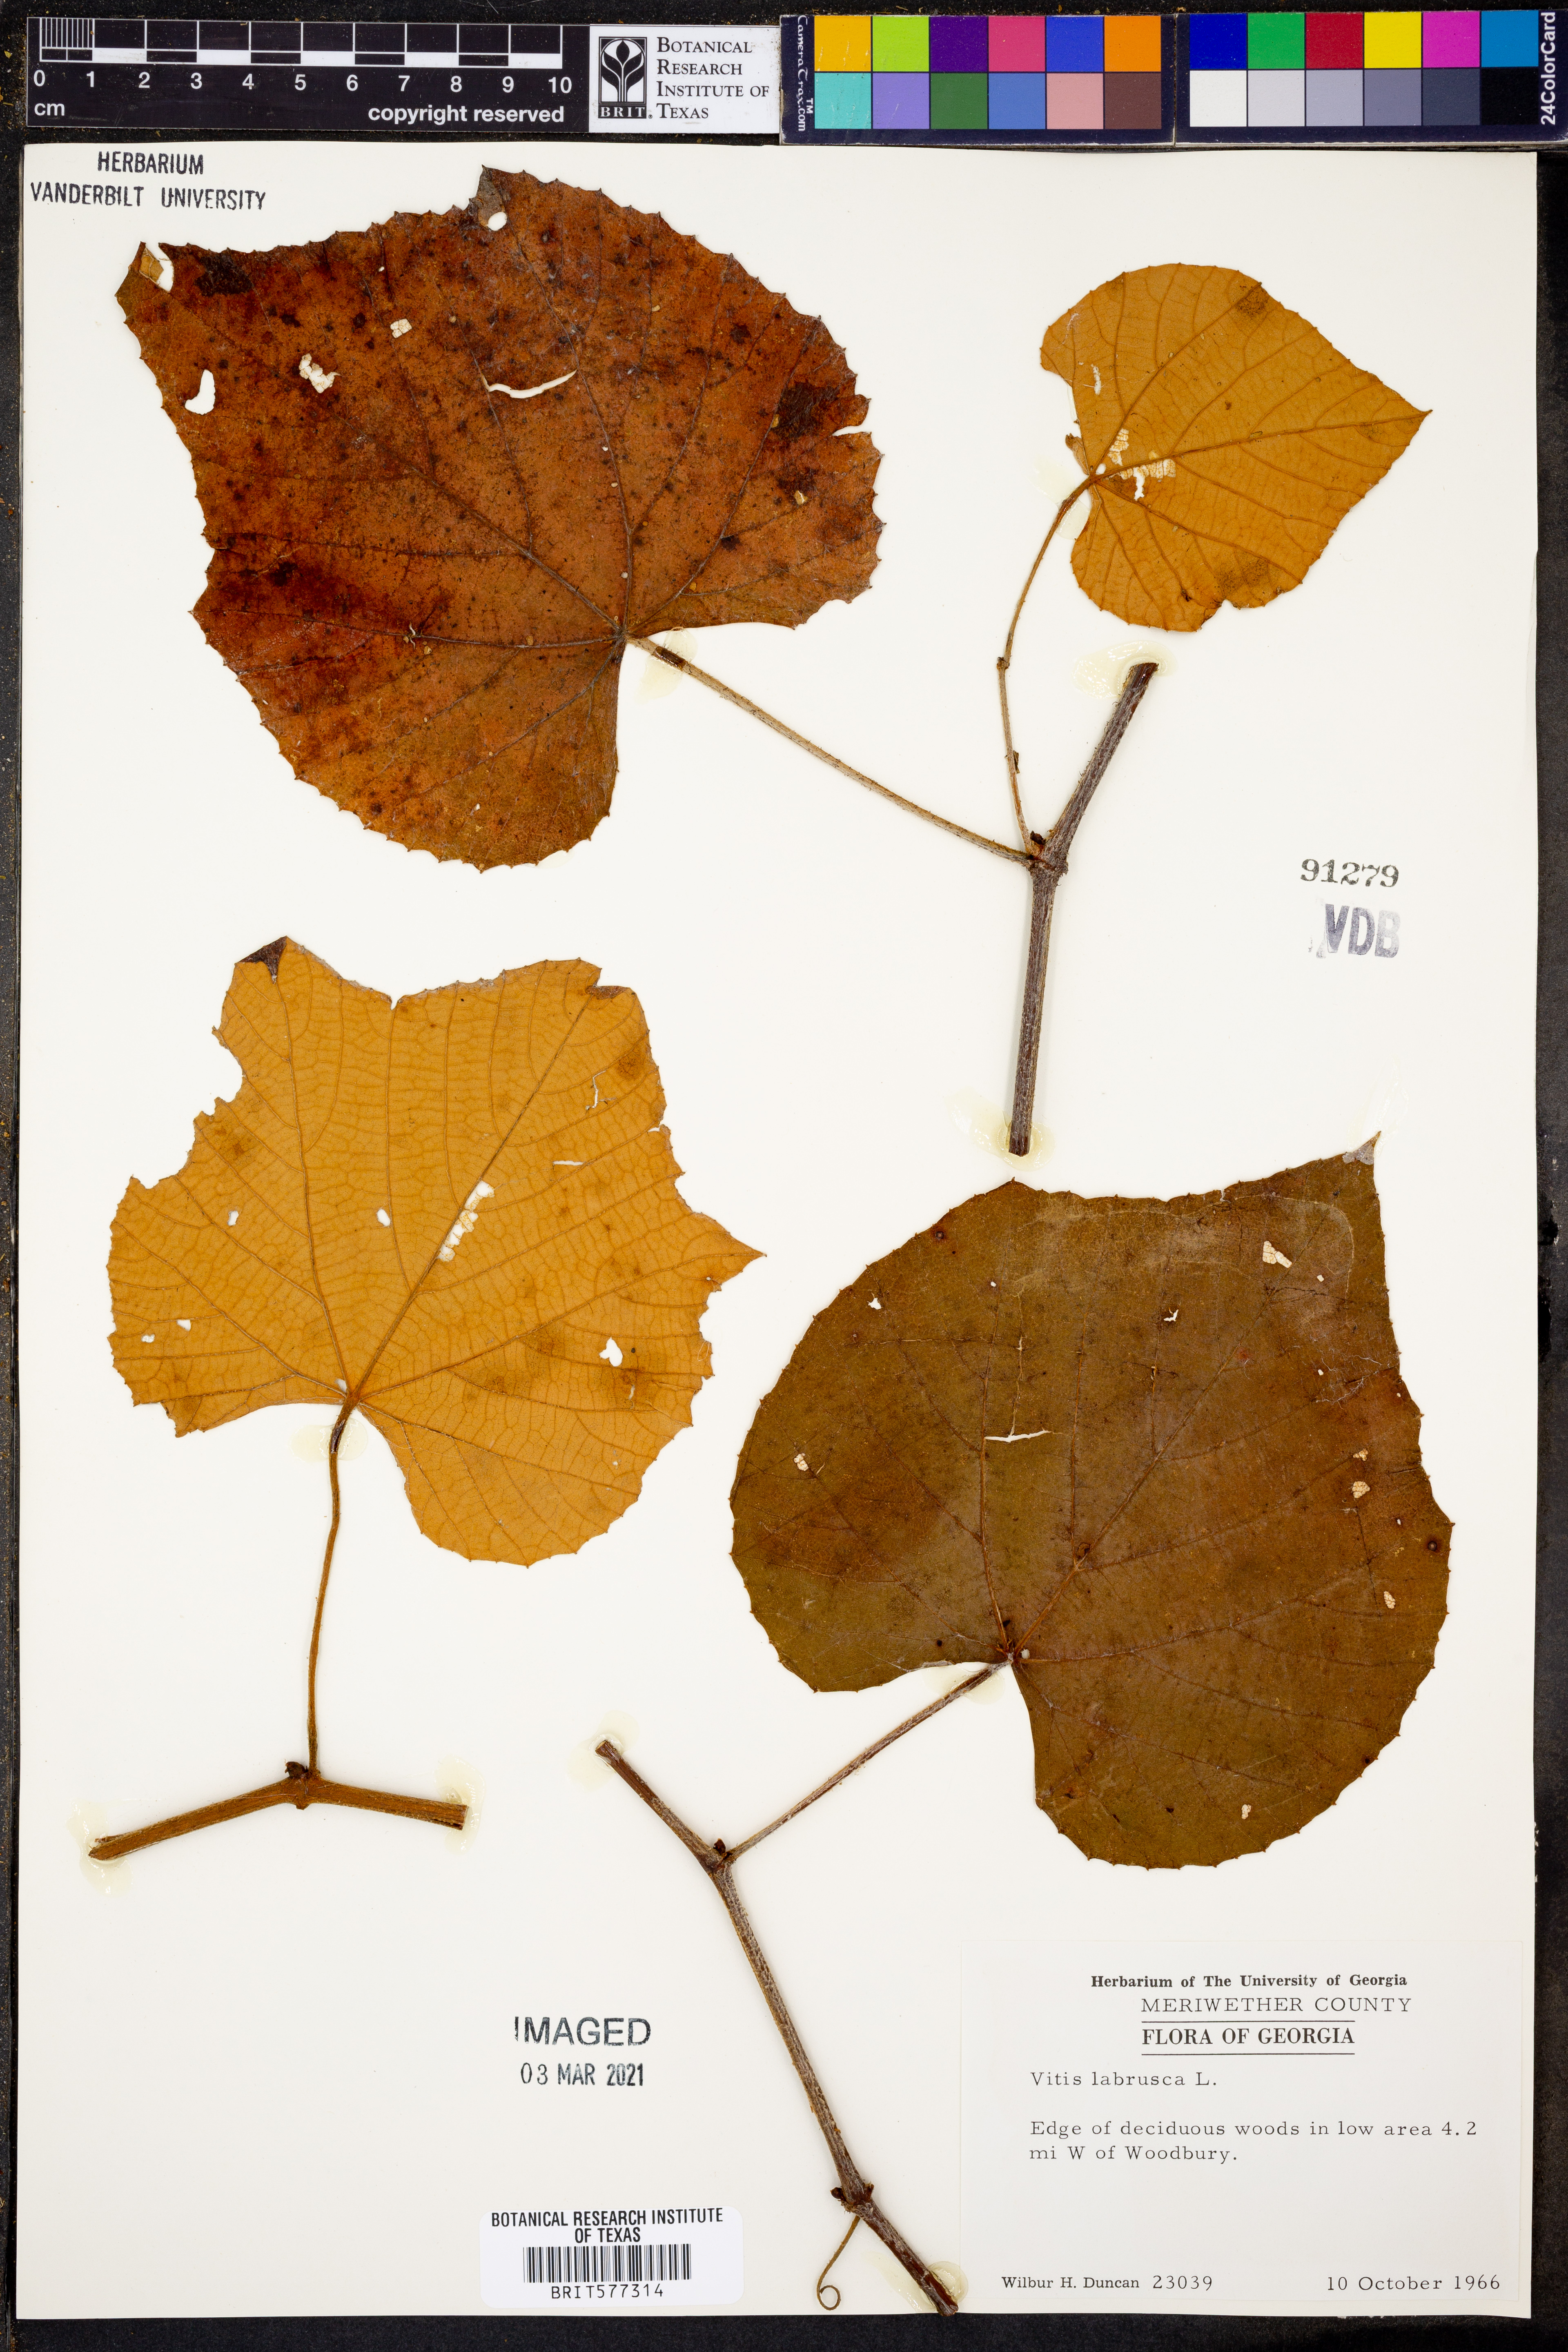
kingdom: Plantae
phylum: Tracheophyta
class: Magnoliopsida
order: Vitales
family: Vitaceae
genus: Vitis
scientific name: Vitis labrusca
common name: Concord grape
